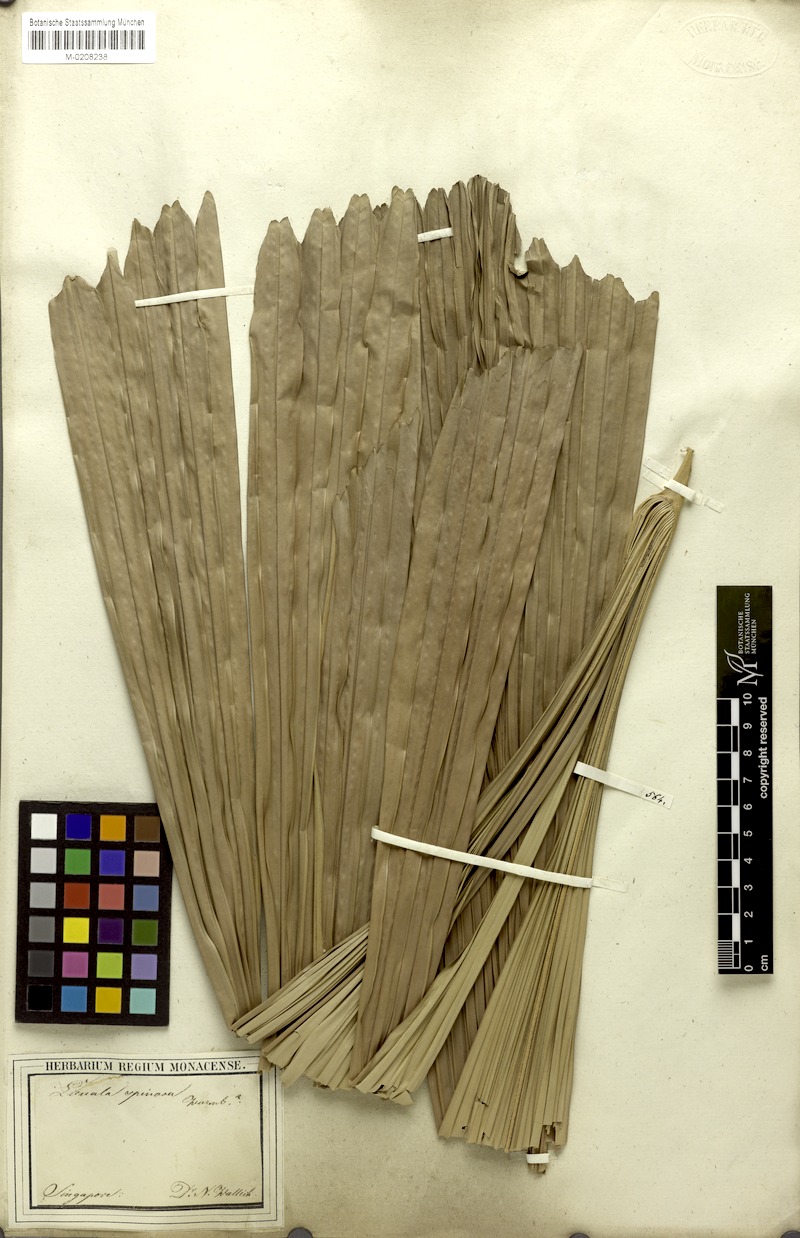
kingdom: Plantae
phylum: Tracheophyta
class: Liliopsida
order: Arecales
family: Arecaceae
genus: Licuala
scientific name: Licuala spinosa
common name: Mangrove fan palm
